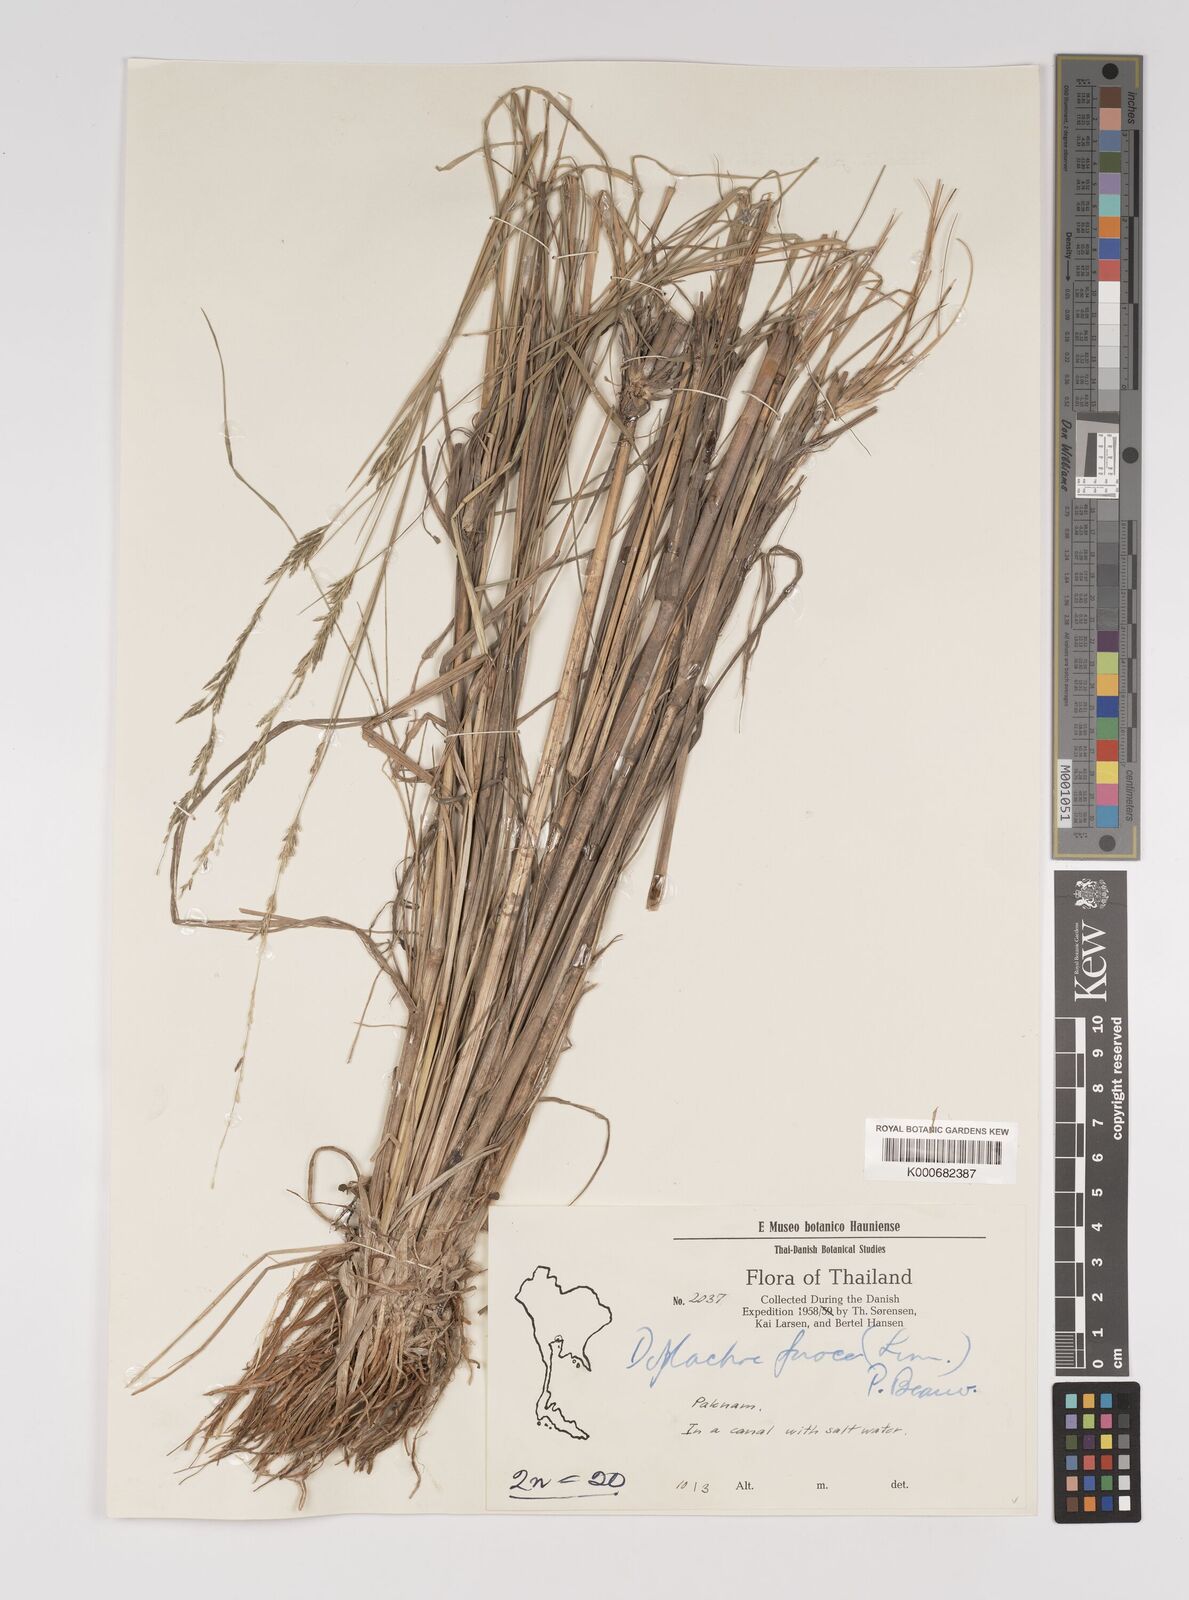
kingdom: Plantae
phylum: Tracheophyta
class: Liliopsida
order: Poales
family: Poaceae
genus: Diplachne
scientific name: Diplachne fusca
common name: Brown beetle grass
